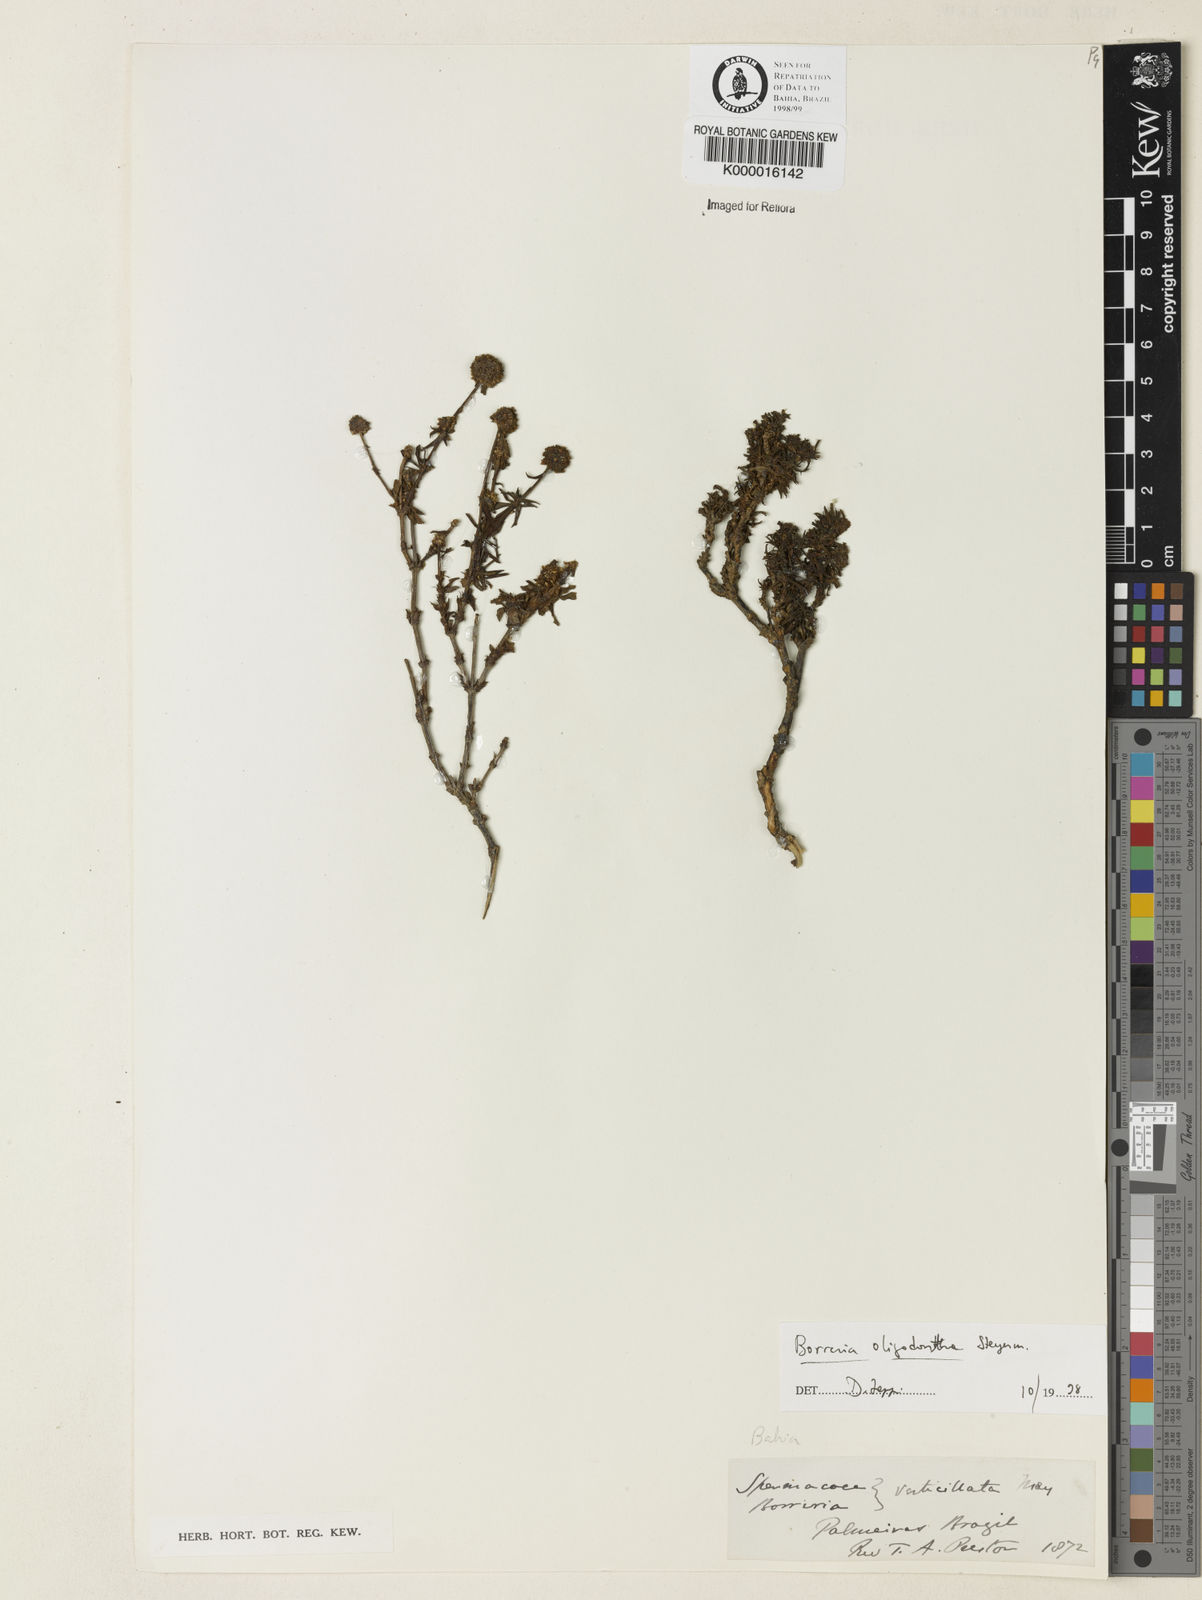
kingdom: Plantae
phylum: Tracheophyta
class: Magnoliopsida
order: Gentianales
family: Rubiaceae
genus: Spermacoce
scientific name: Spermacoce verticillata
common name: Shrubby false buttonweed
